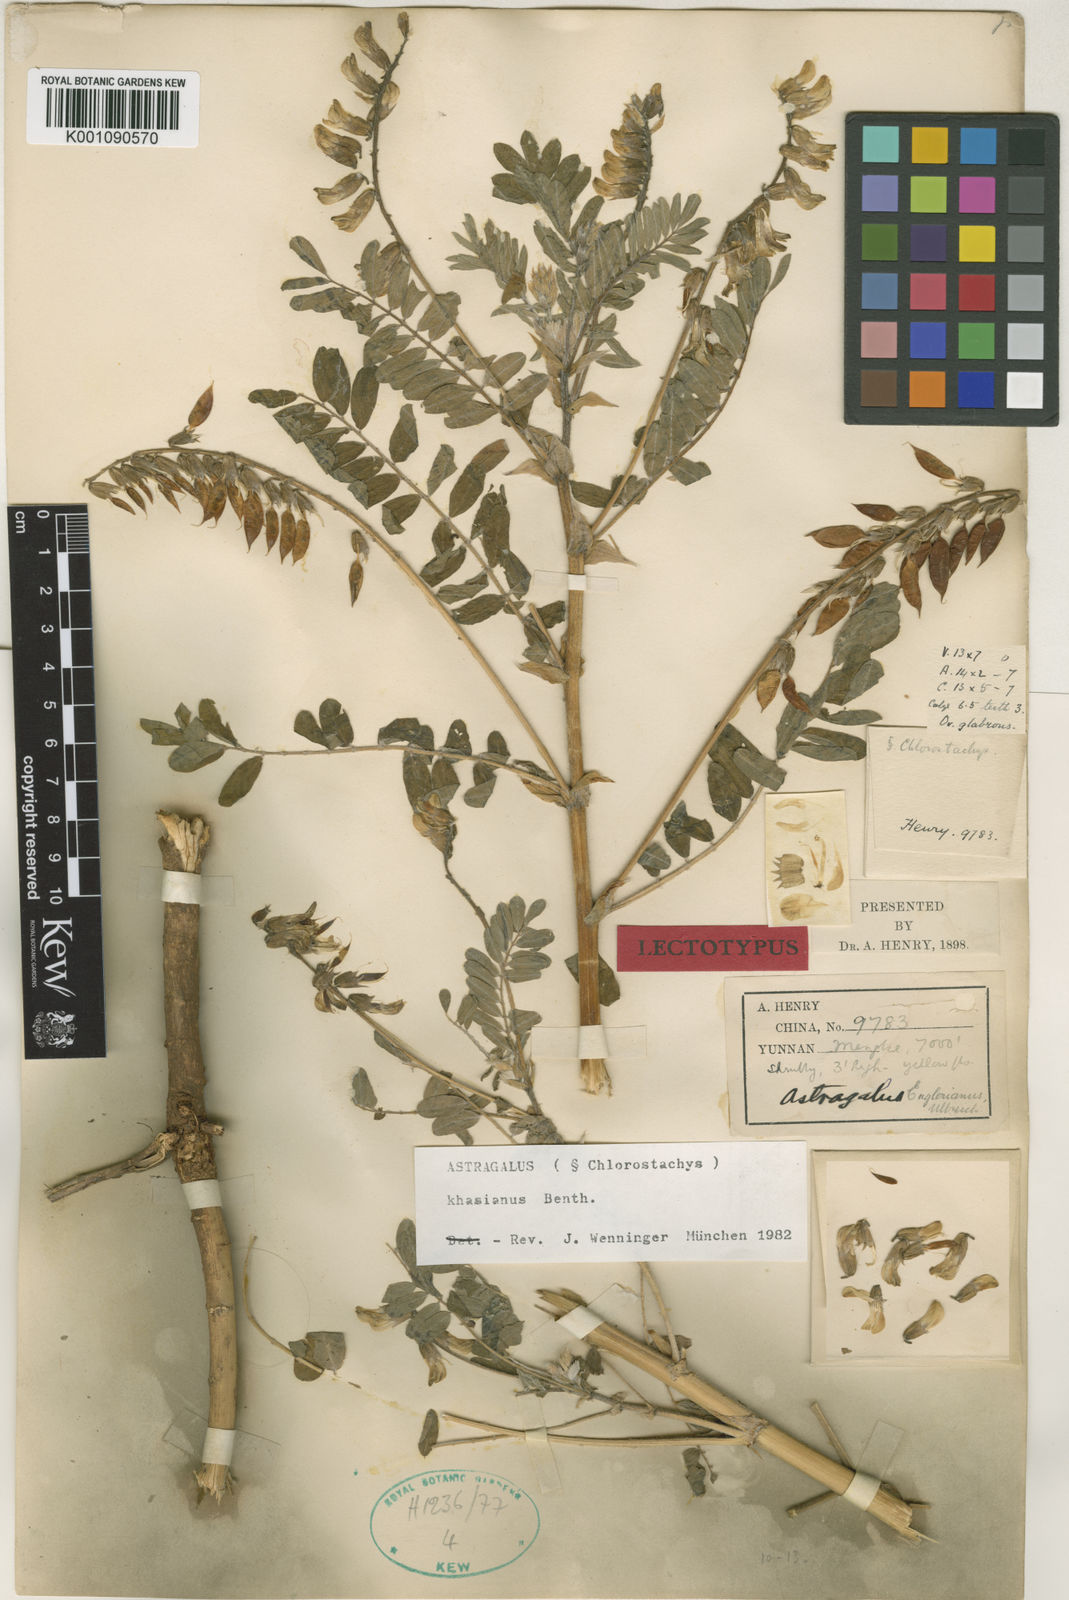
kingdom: Plantae
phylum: Tracheophyta
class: Magnoliopsida
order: Fabales
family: Fabaceae
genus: Astragalus
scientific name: Astragalus
